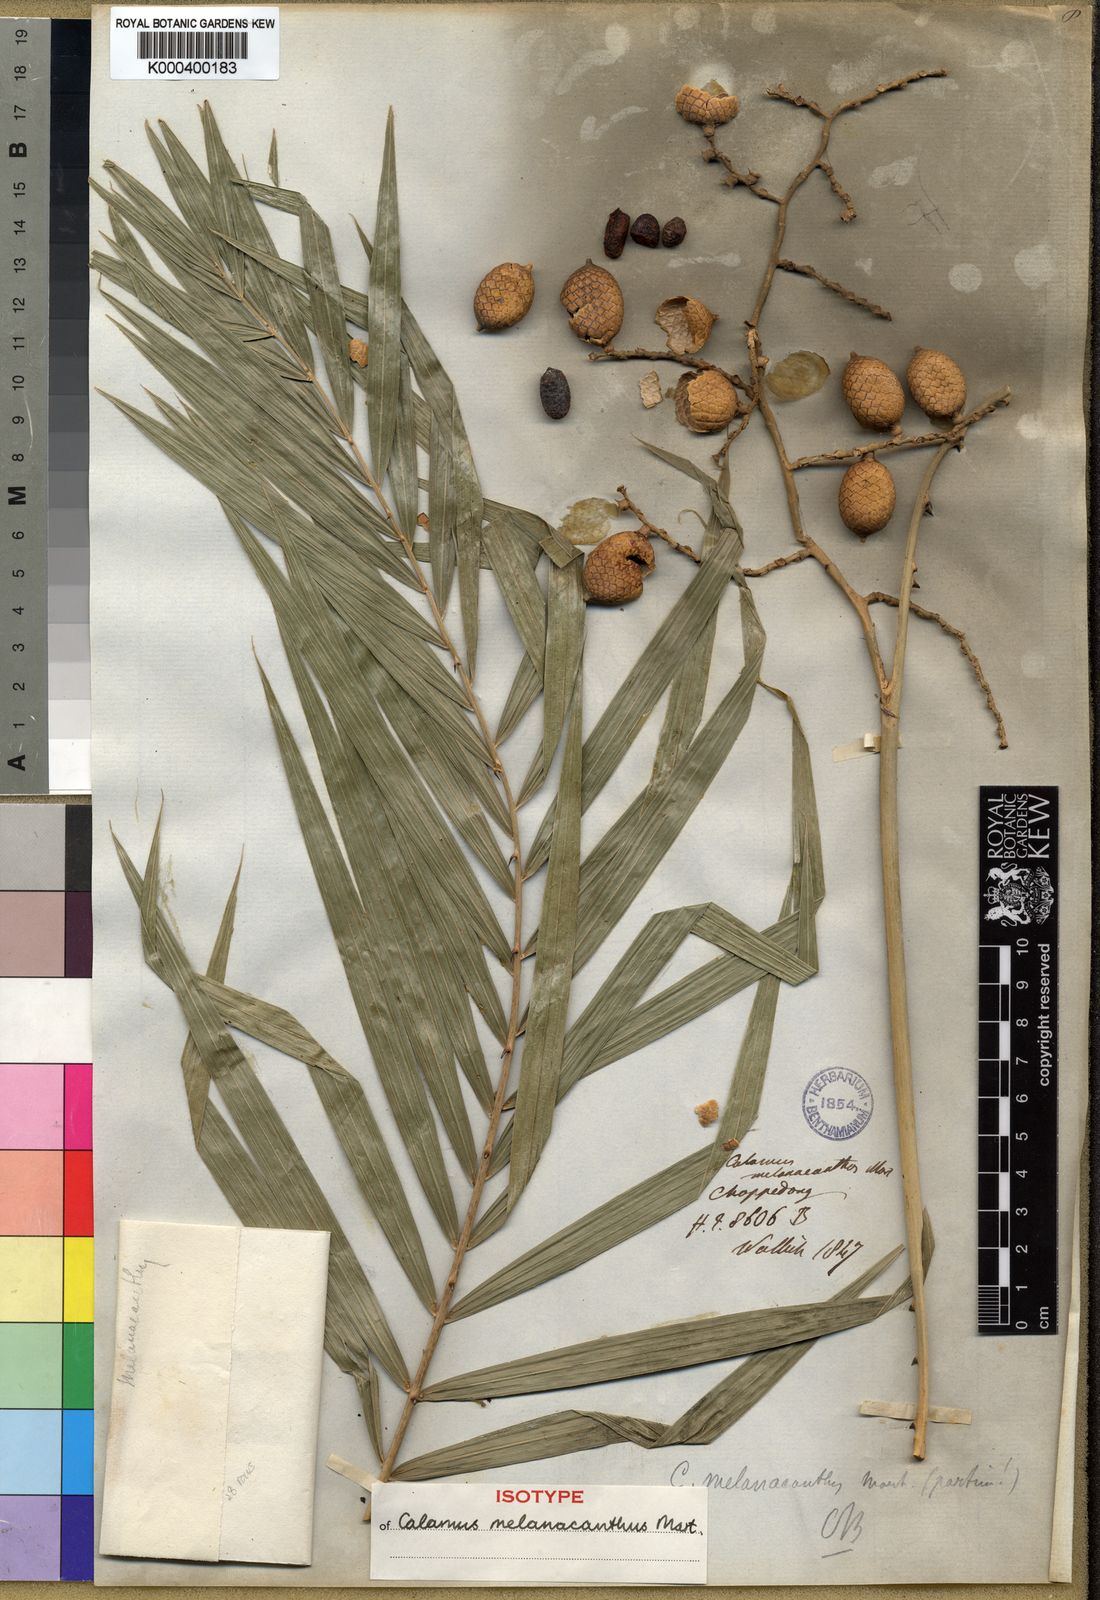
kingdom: Plantae
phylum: Tracheophyta
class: Liliopsida
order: Arecales
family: Arecaceae
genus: Calamus
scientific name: Calamus
